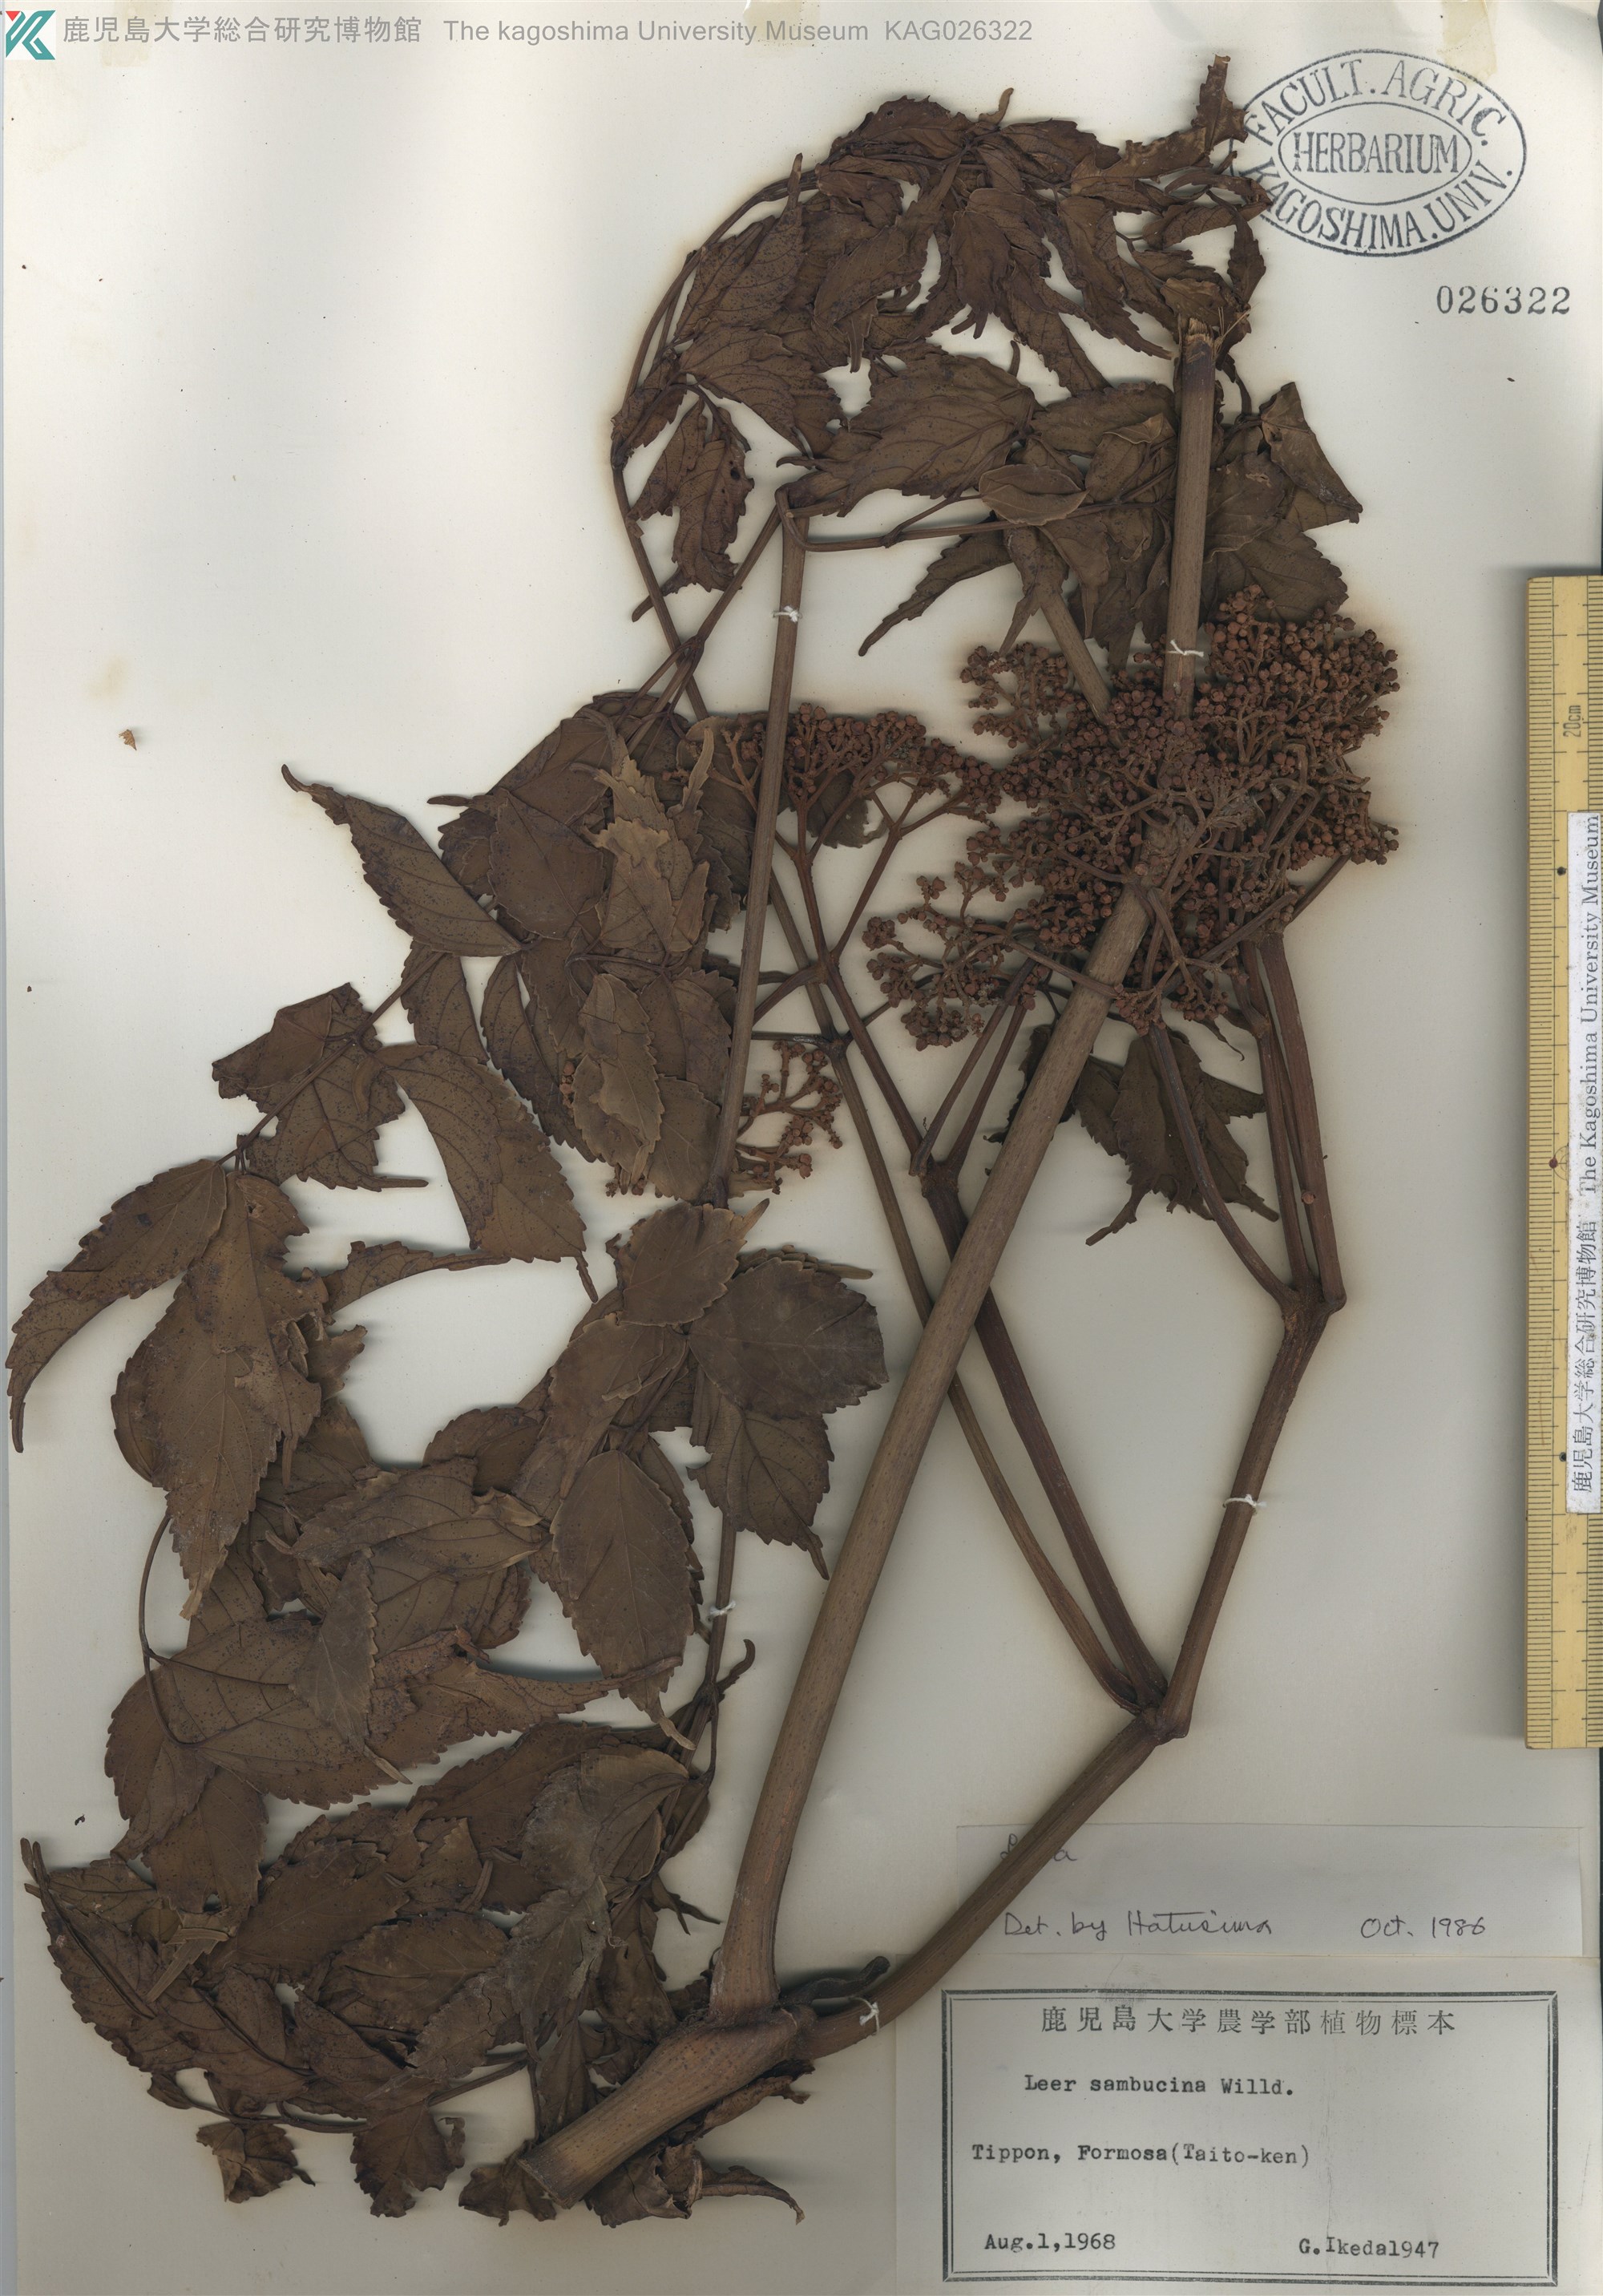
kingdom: Plantae
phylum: Tracheophyta
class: Magnoliopsida
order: Vitales
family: Vitaceae
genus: Leea
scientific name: Leea
